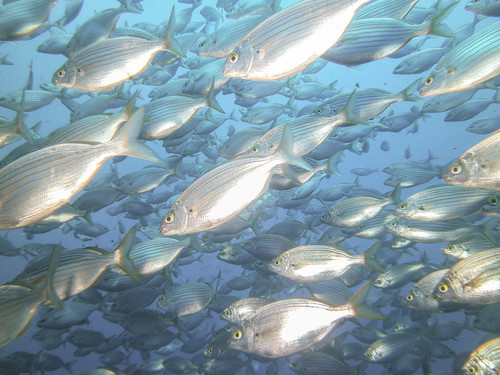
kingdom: Animalia
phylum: Chordata
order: Perciformes
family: Sparidae
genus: Sarpa
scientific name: Sarpa salpa
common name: Salema
